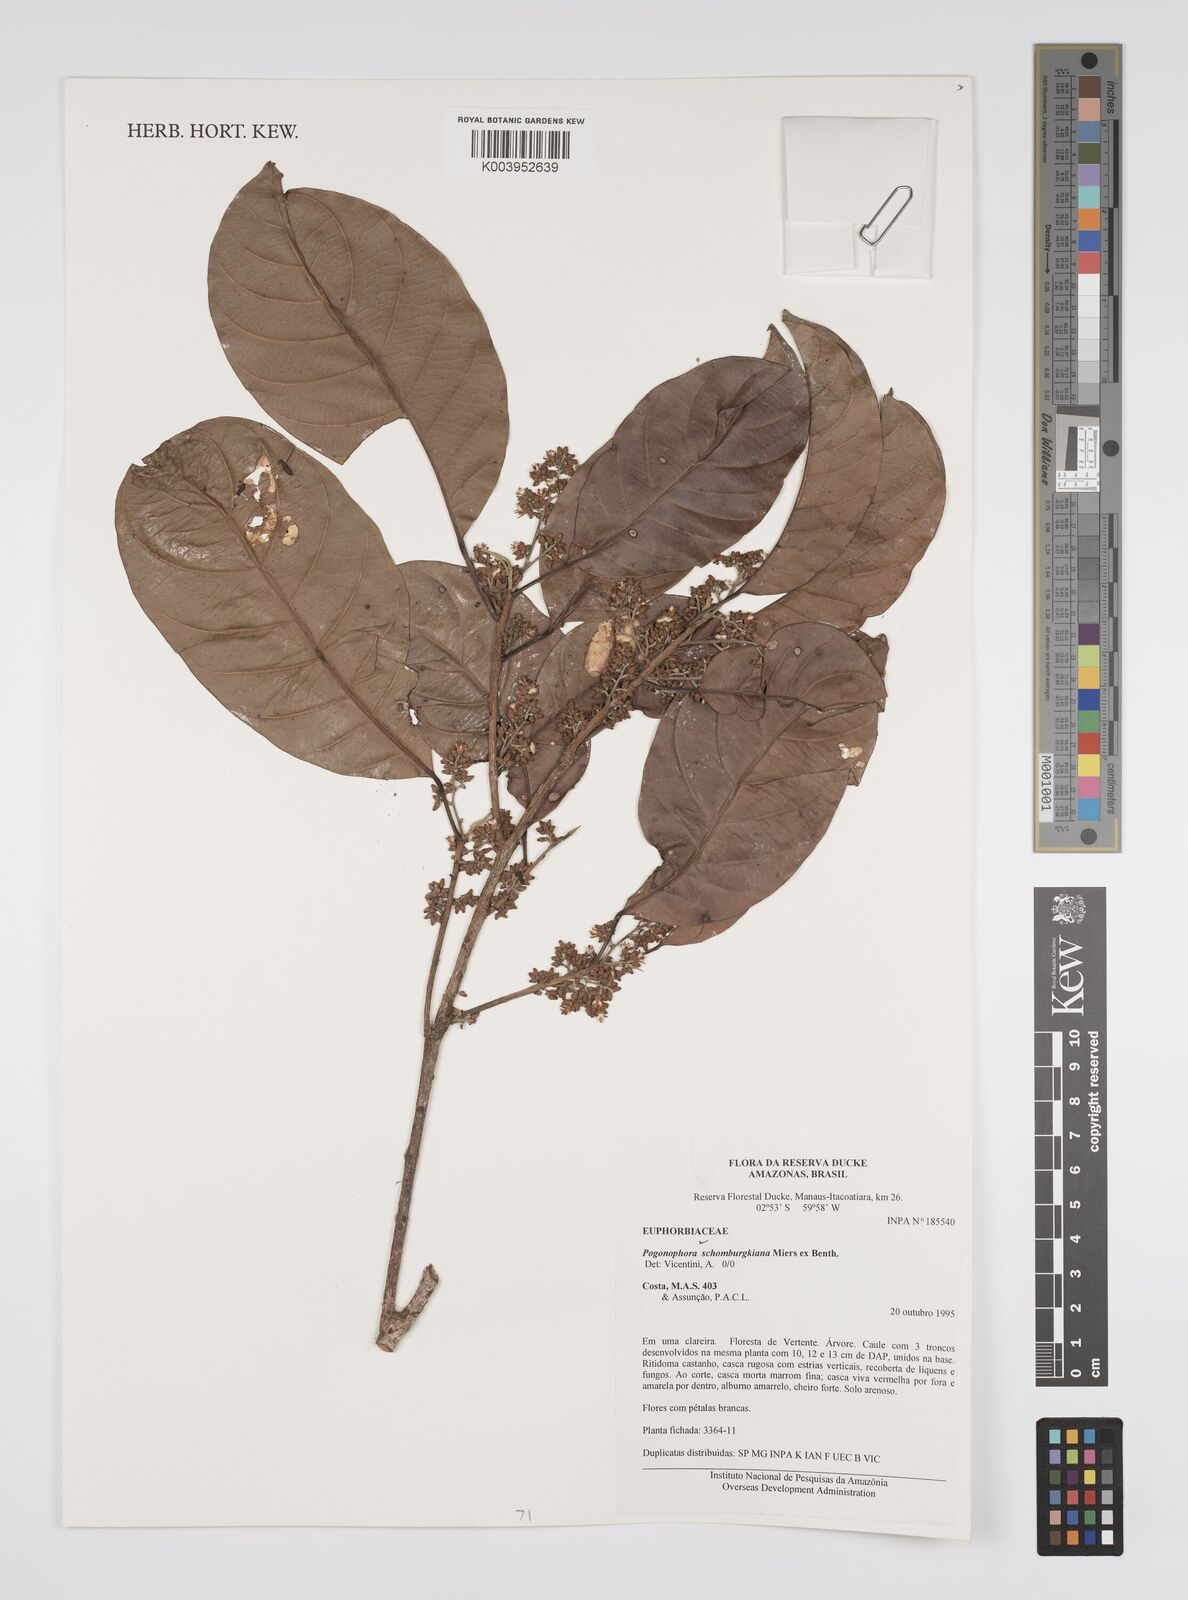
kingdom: Plantae
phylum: Tracheophyta
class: Magnoliopsida
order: Malpighiales
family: Peraceae
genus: Pogonophora
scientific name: Pogonophora schomburgkiana
